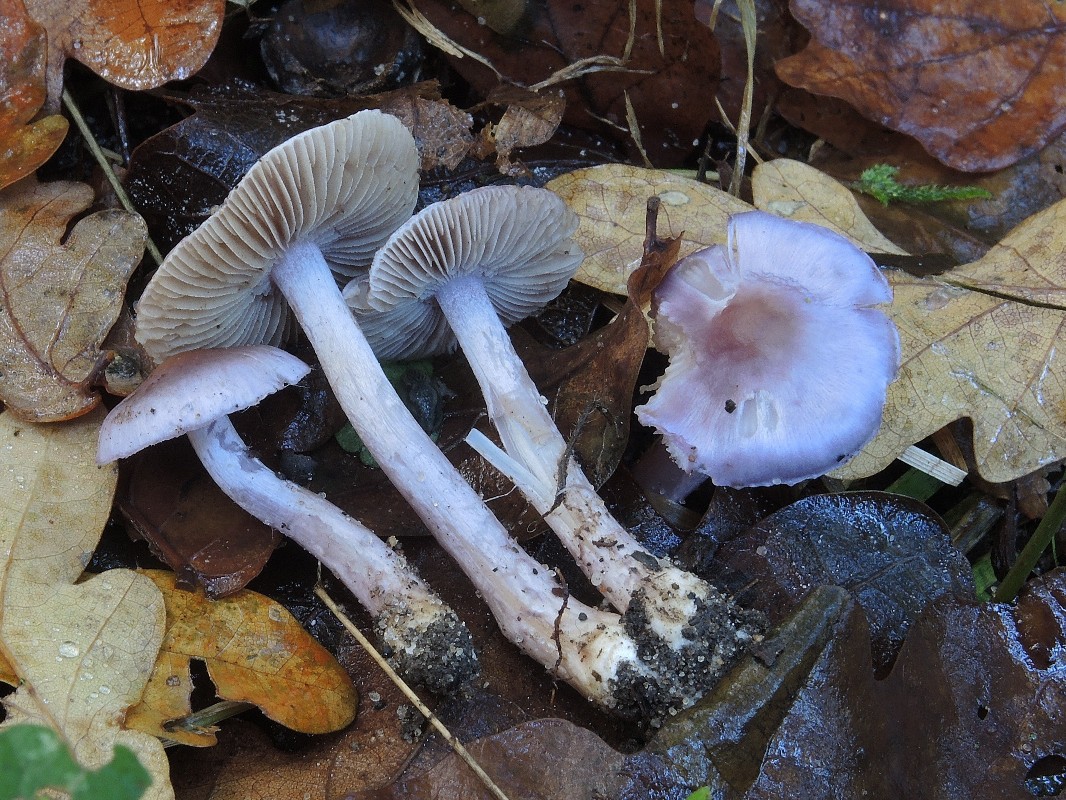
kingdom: Fungi
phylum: Basidiomycota
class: Agaricomycetes
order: Agaricales
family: Inocybaceae
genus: Inocybe
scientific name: Inocybe geophylla
